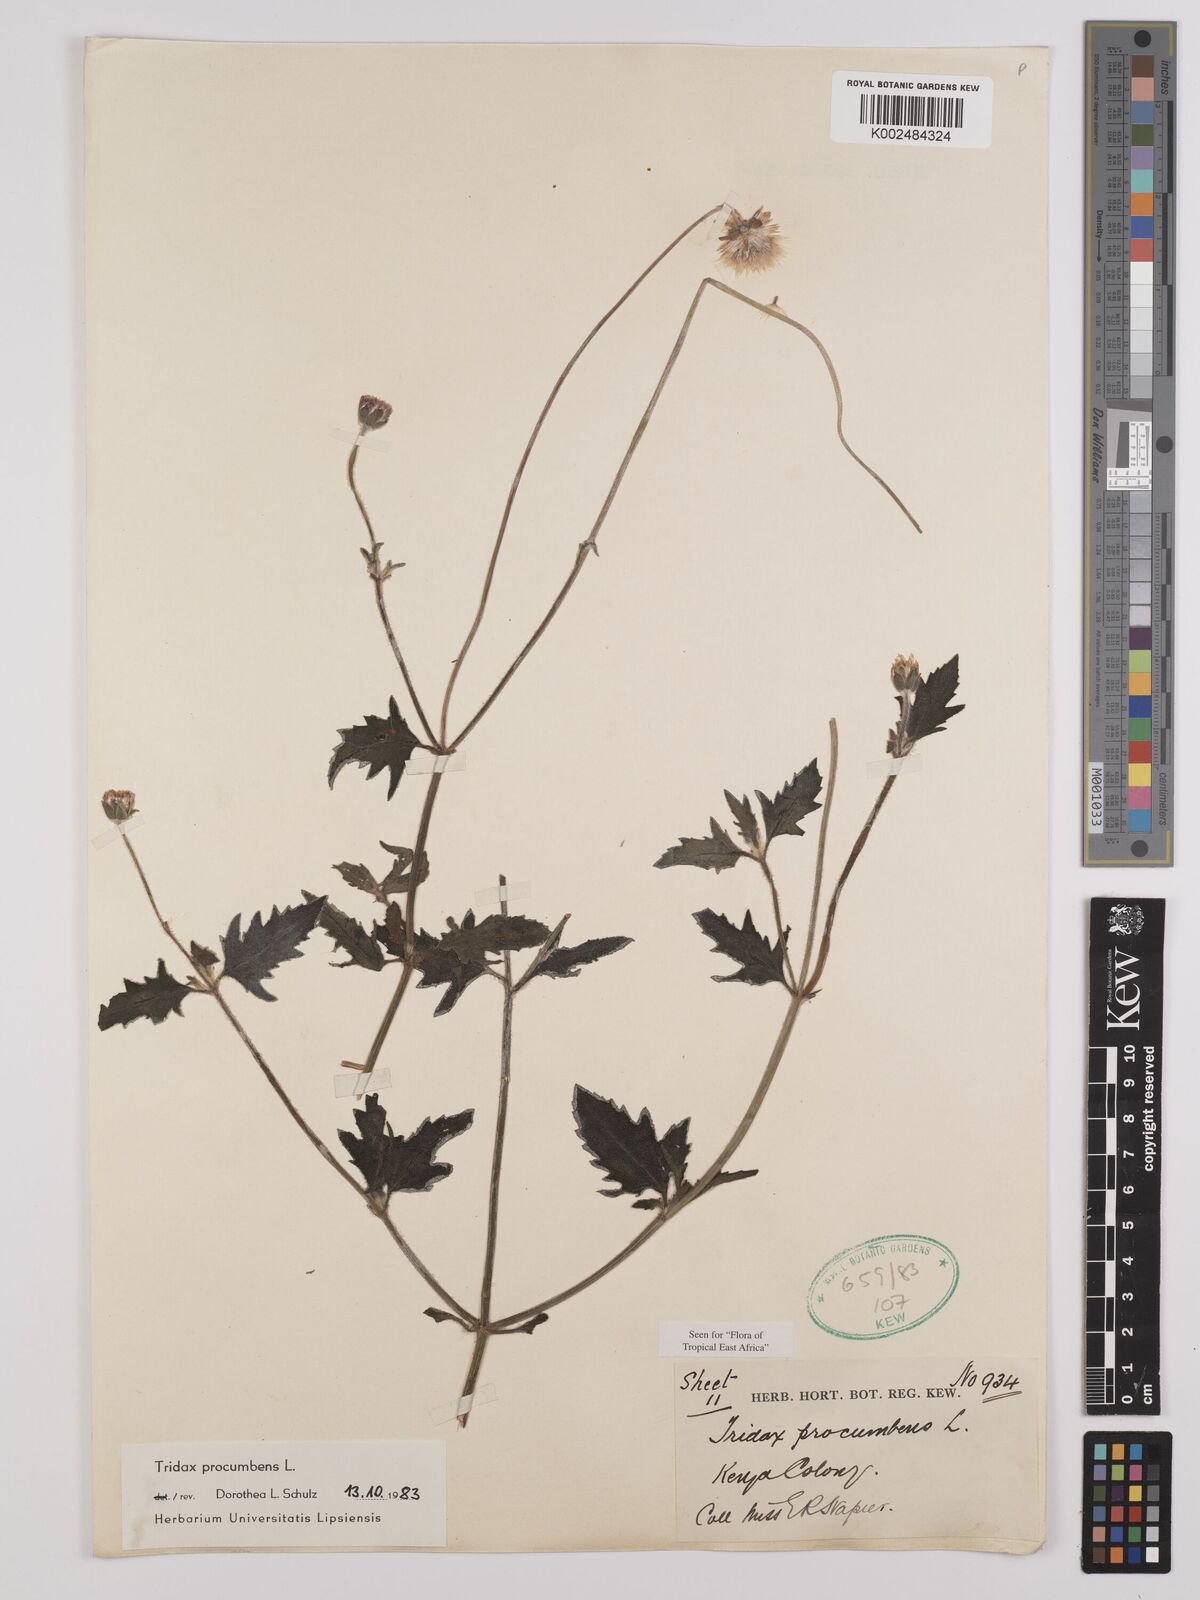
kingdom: Plantae
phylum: Tracheophyta
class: Magnoliopsida
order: Asterales
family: Asteraceae
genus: Tridax
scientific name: Tridax procumbens
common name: Coatbuttons
